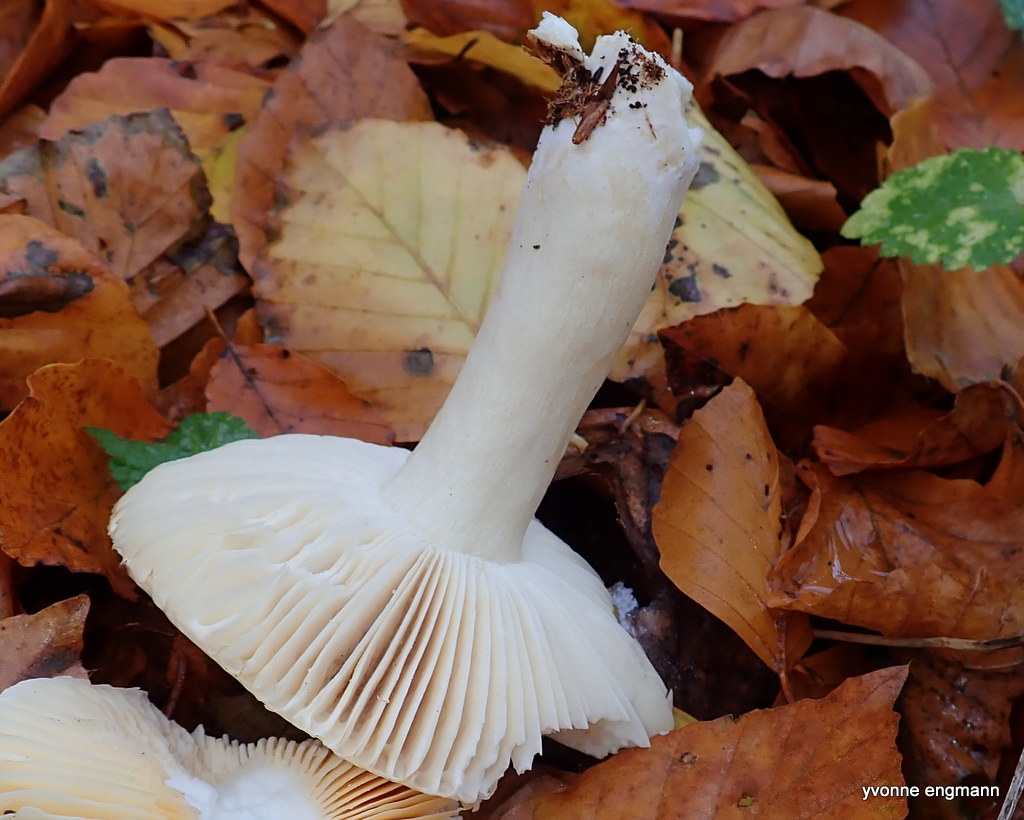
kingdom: Fungi
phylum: Basidiomycota
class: Agaricomycetes
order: Russulales
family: Russulaceae
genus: Russula
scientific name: Russula ochroleuca
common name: okkergul skørhat
